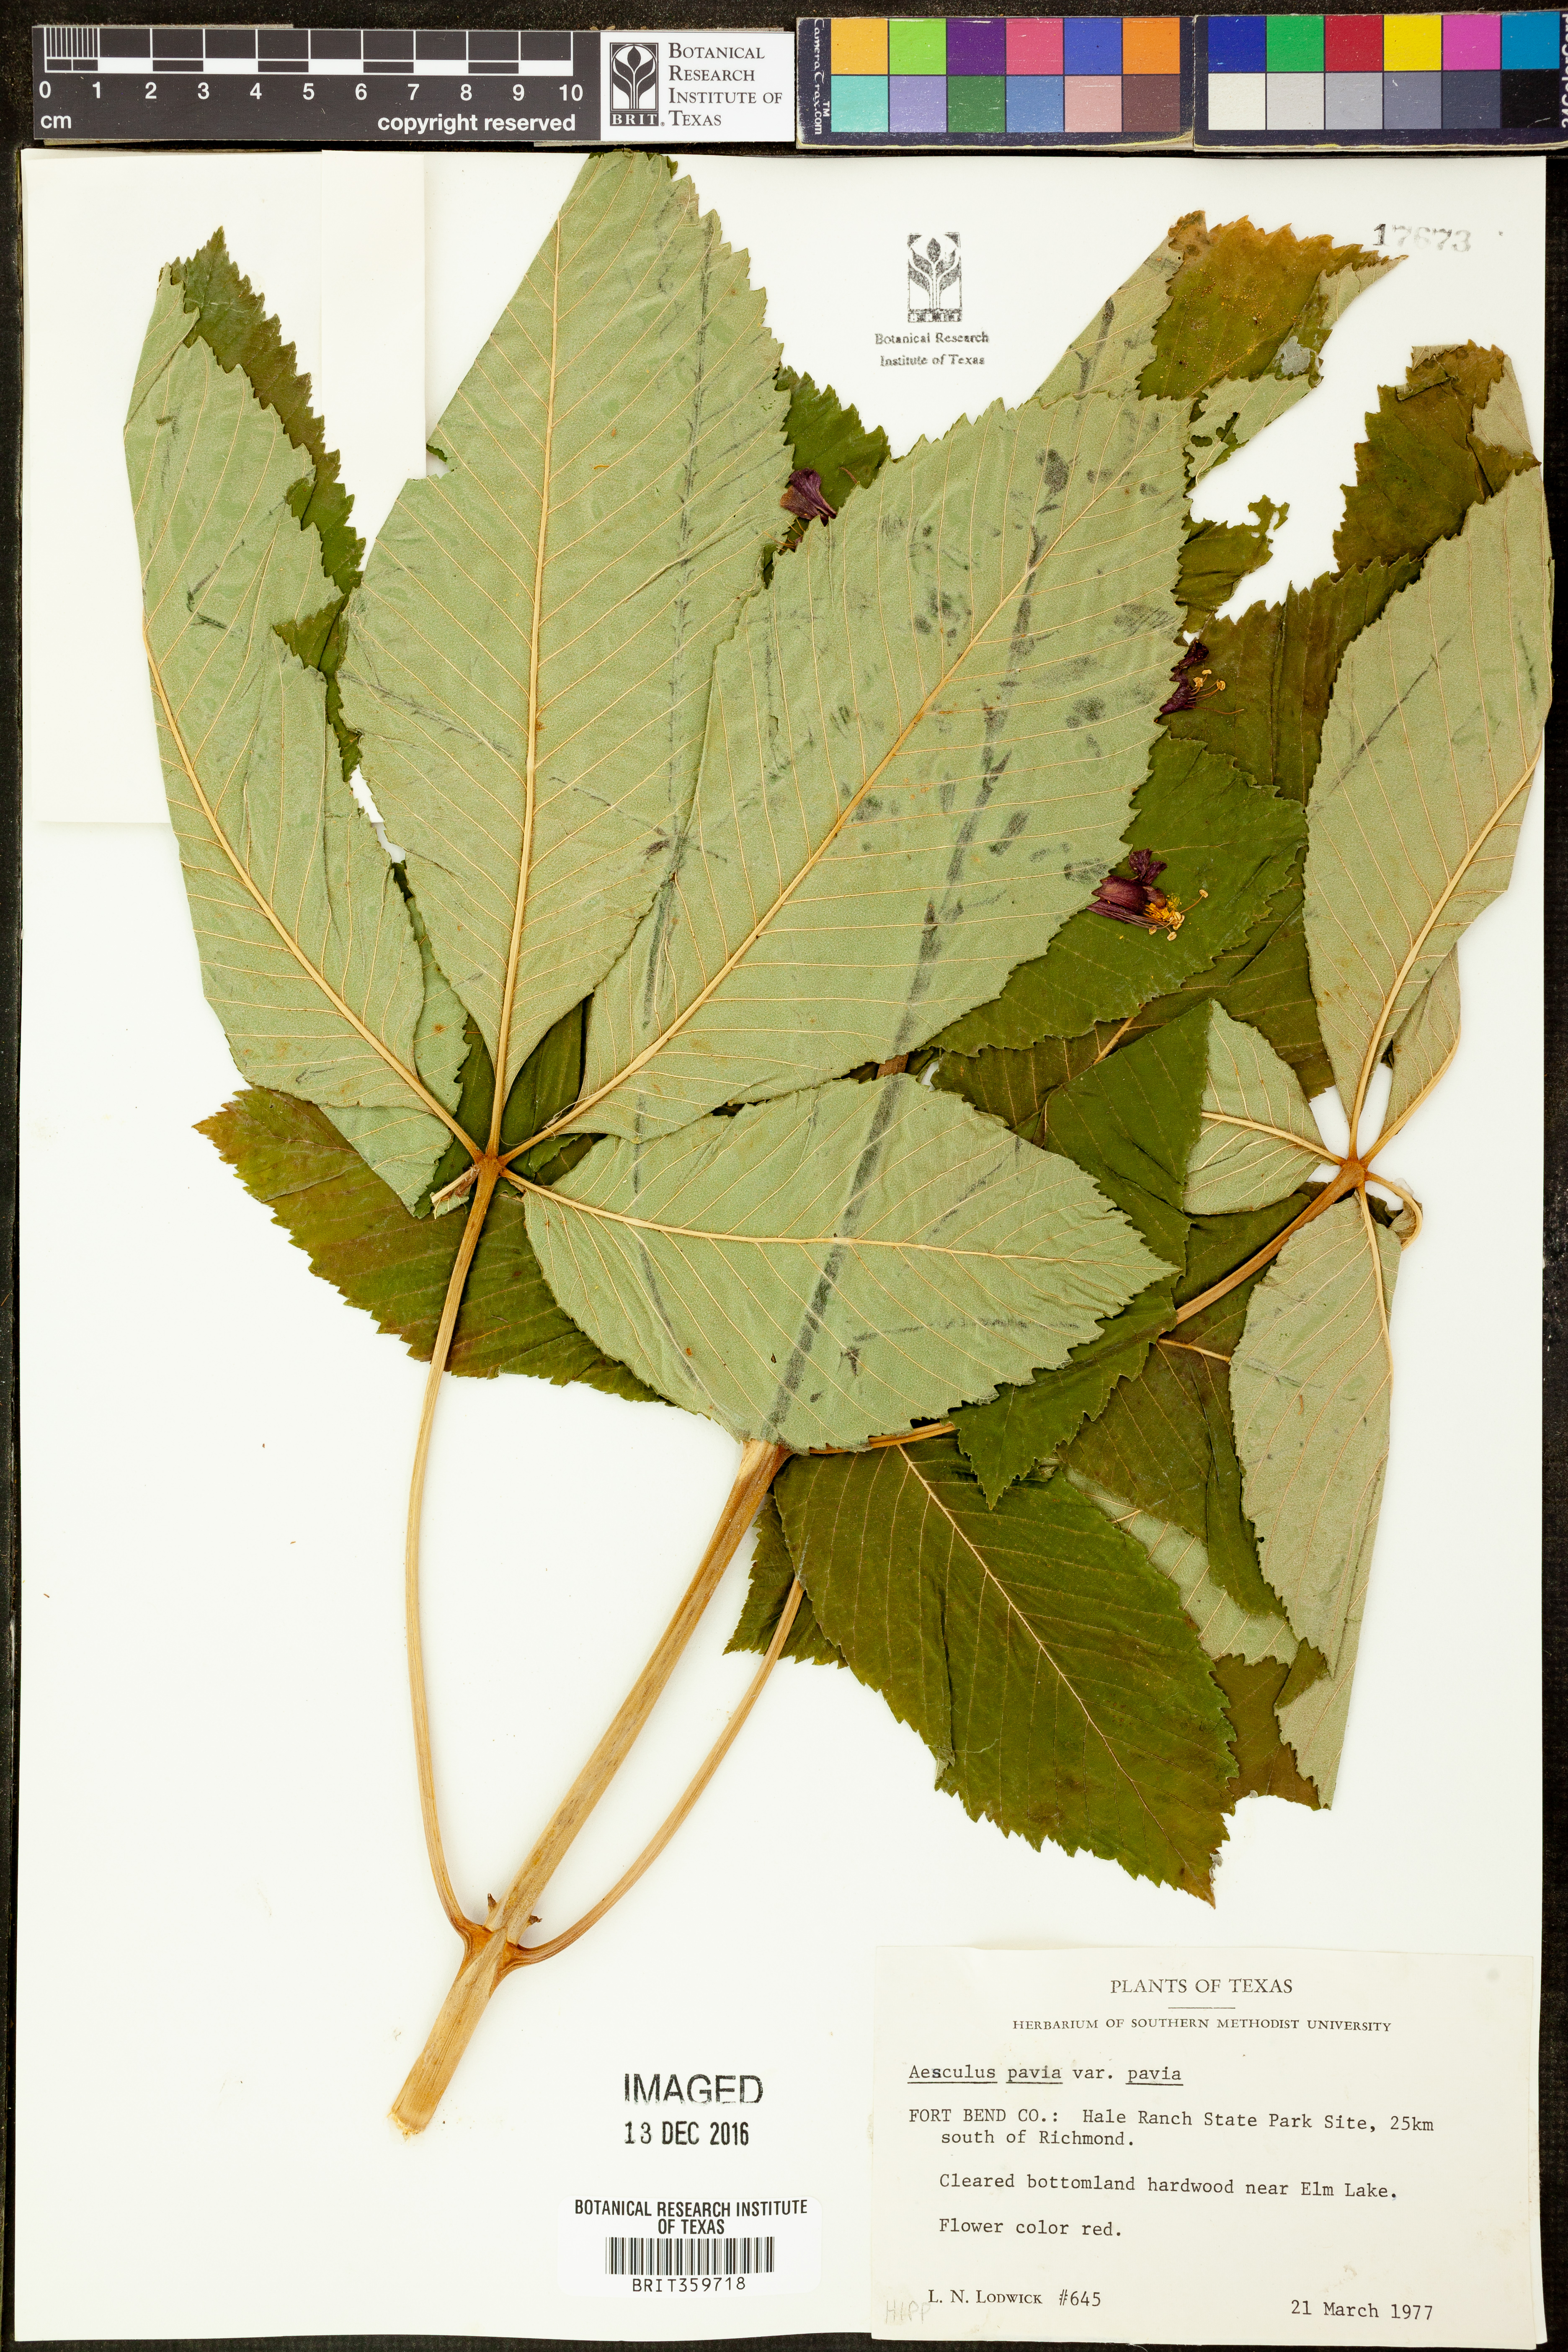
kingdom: Plantae
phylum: Tracheophyta
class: Magnoliopsida
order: Sapindales
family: Sapindaceae
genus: Aesculus
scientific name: Aesculus pavia
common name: Red buckeye
